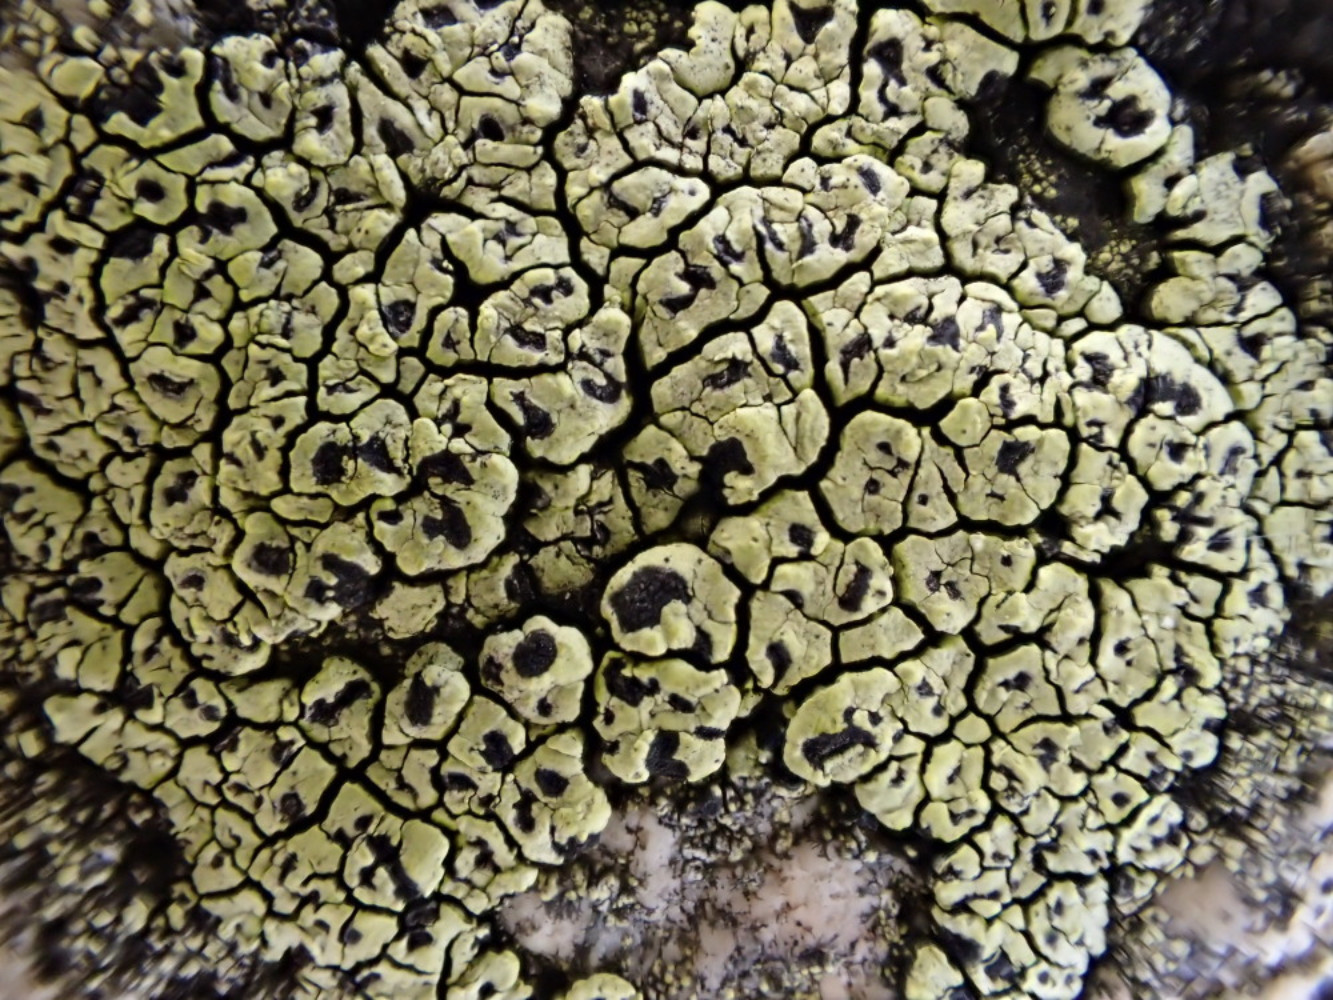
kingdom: Fungi
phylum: Ascomycota
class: Lecanoromycetes
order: Rhizocarpales
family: Rhizocarpaceae
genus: Rhizocarpon
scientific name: Rhizocarpon lecanorinum
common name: krave-landkortlav
